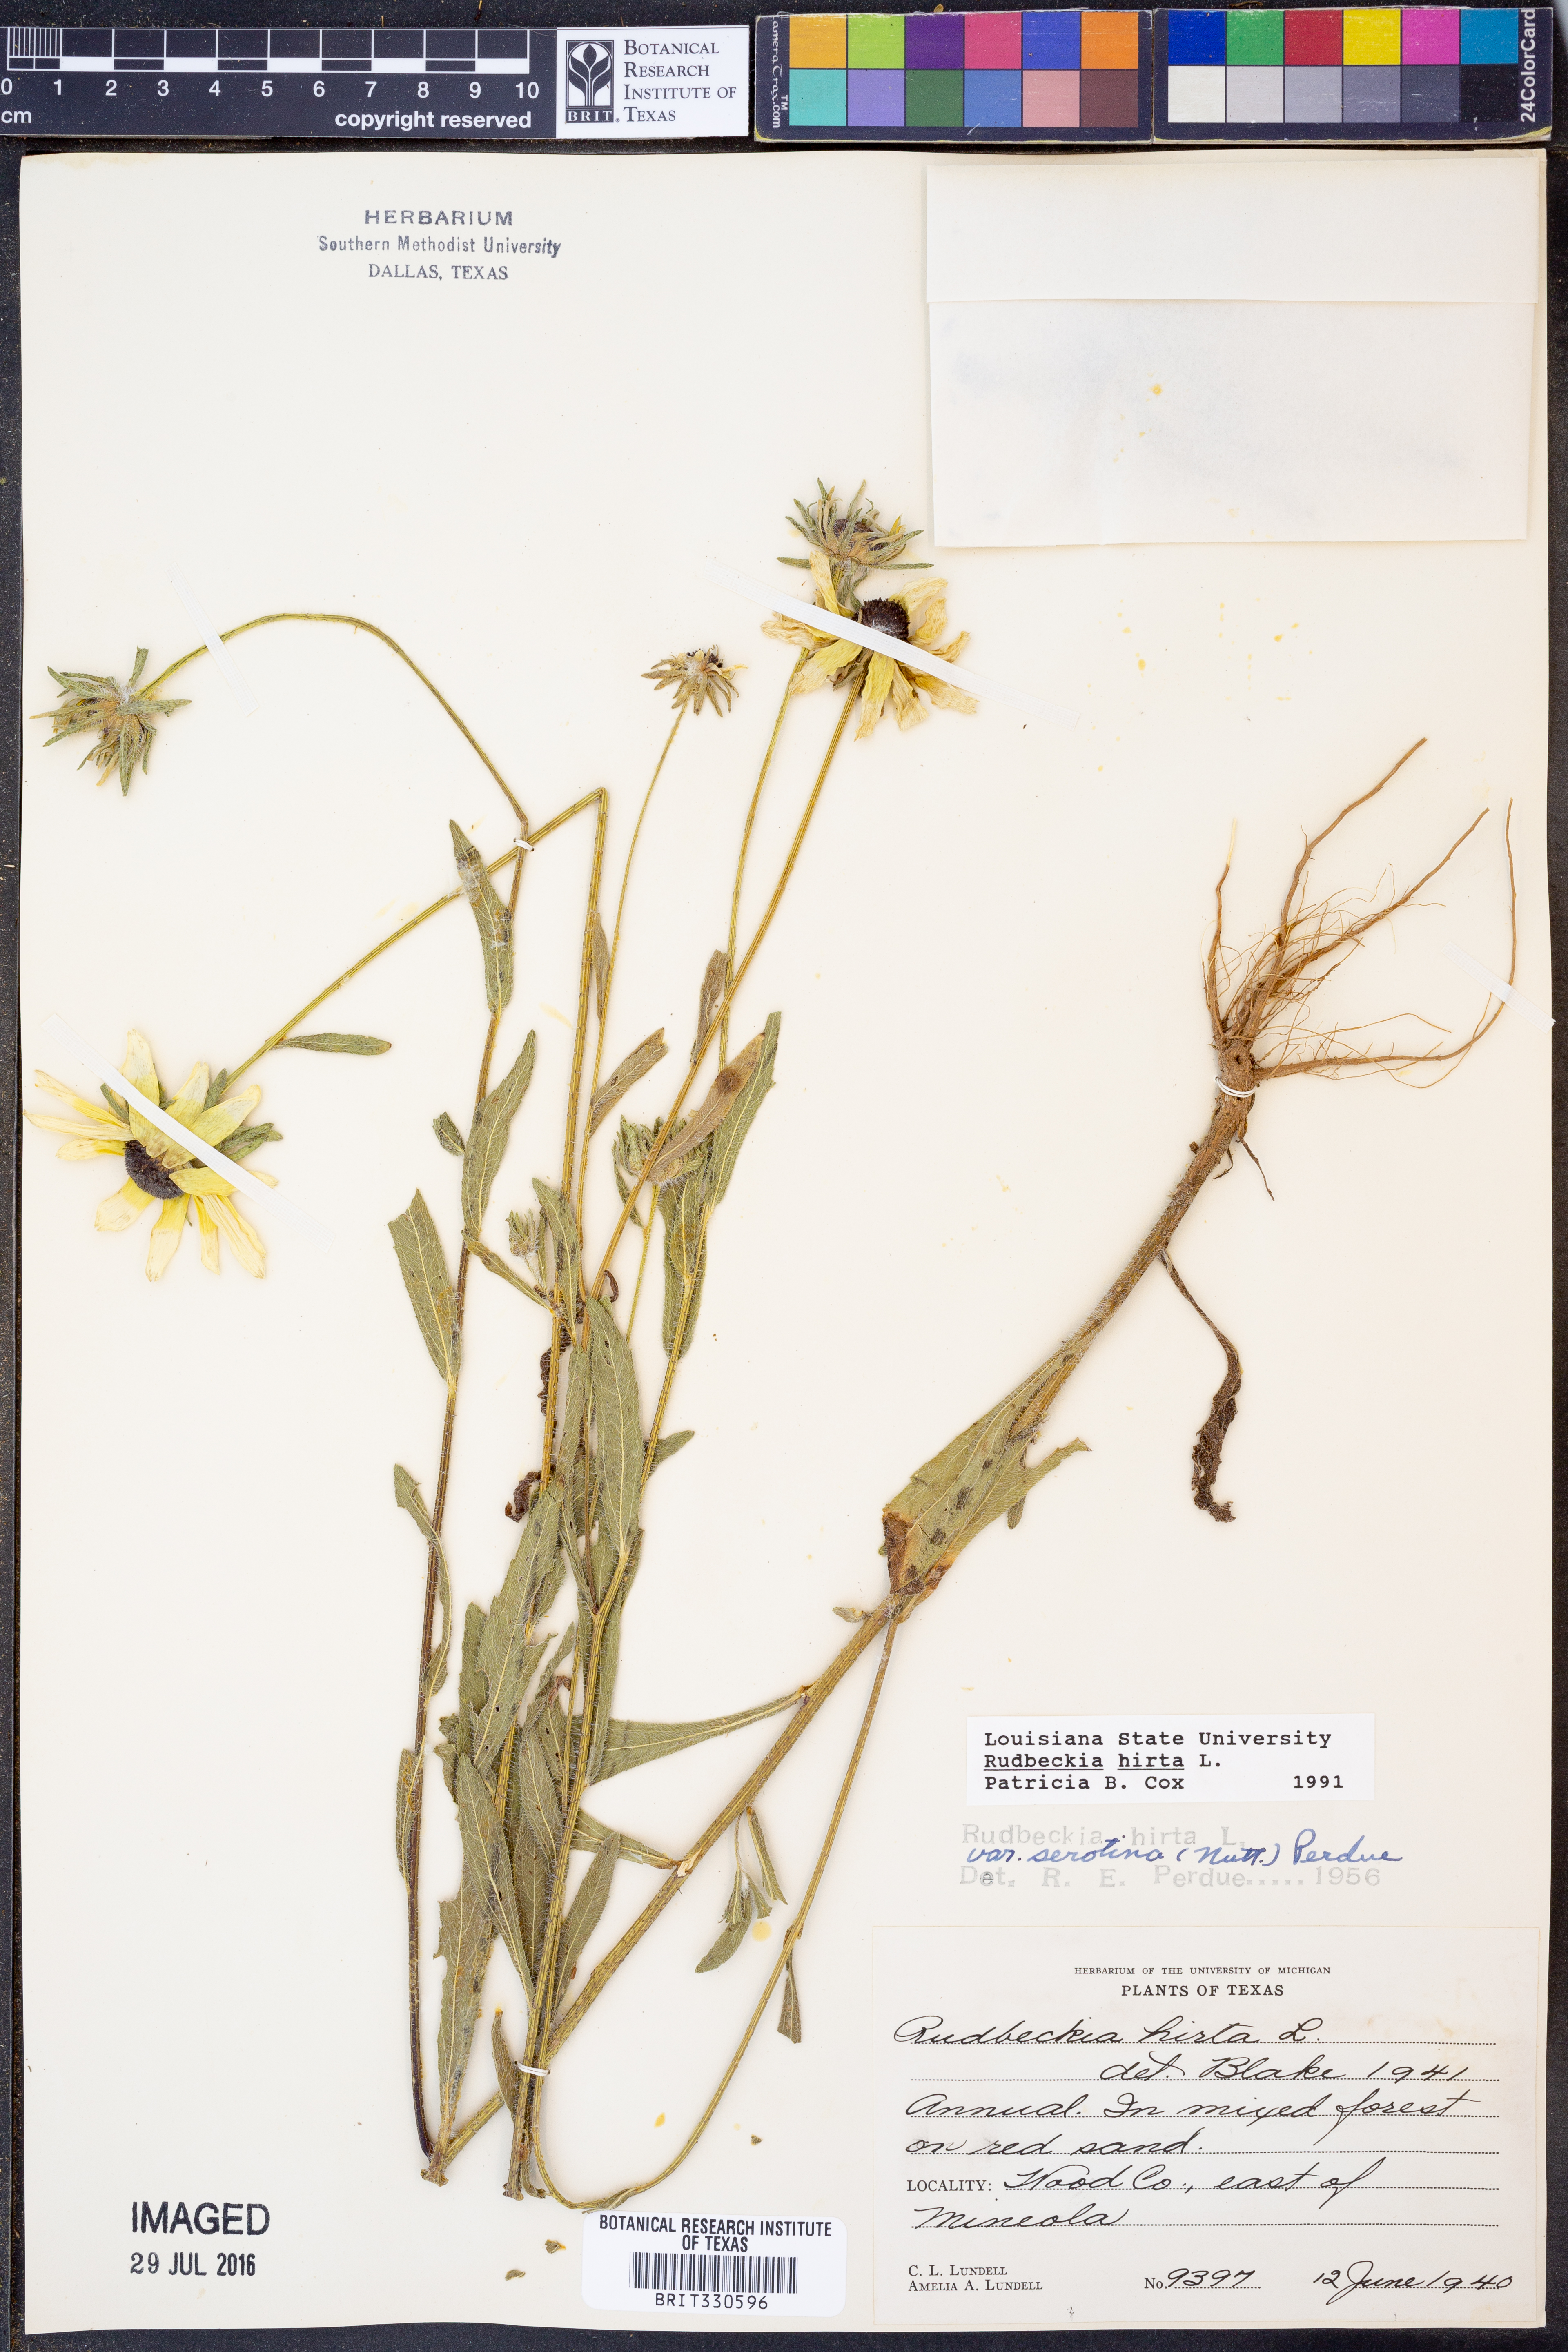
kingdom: Plantae
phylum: Tracheophyta
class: Magnoliopsida
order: Asterales
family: Asteraceae
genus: Rudbeckia
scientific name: Rudbeckia hirta
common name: Black-eyed-susan
